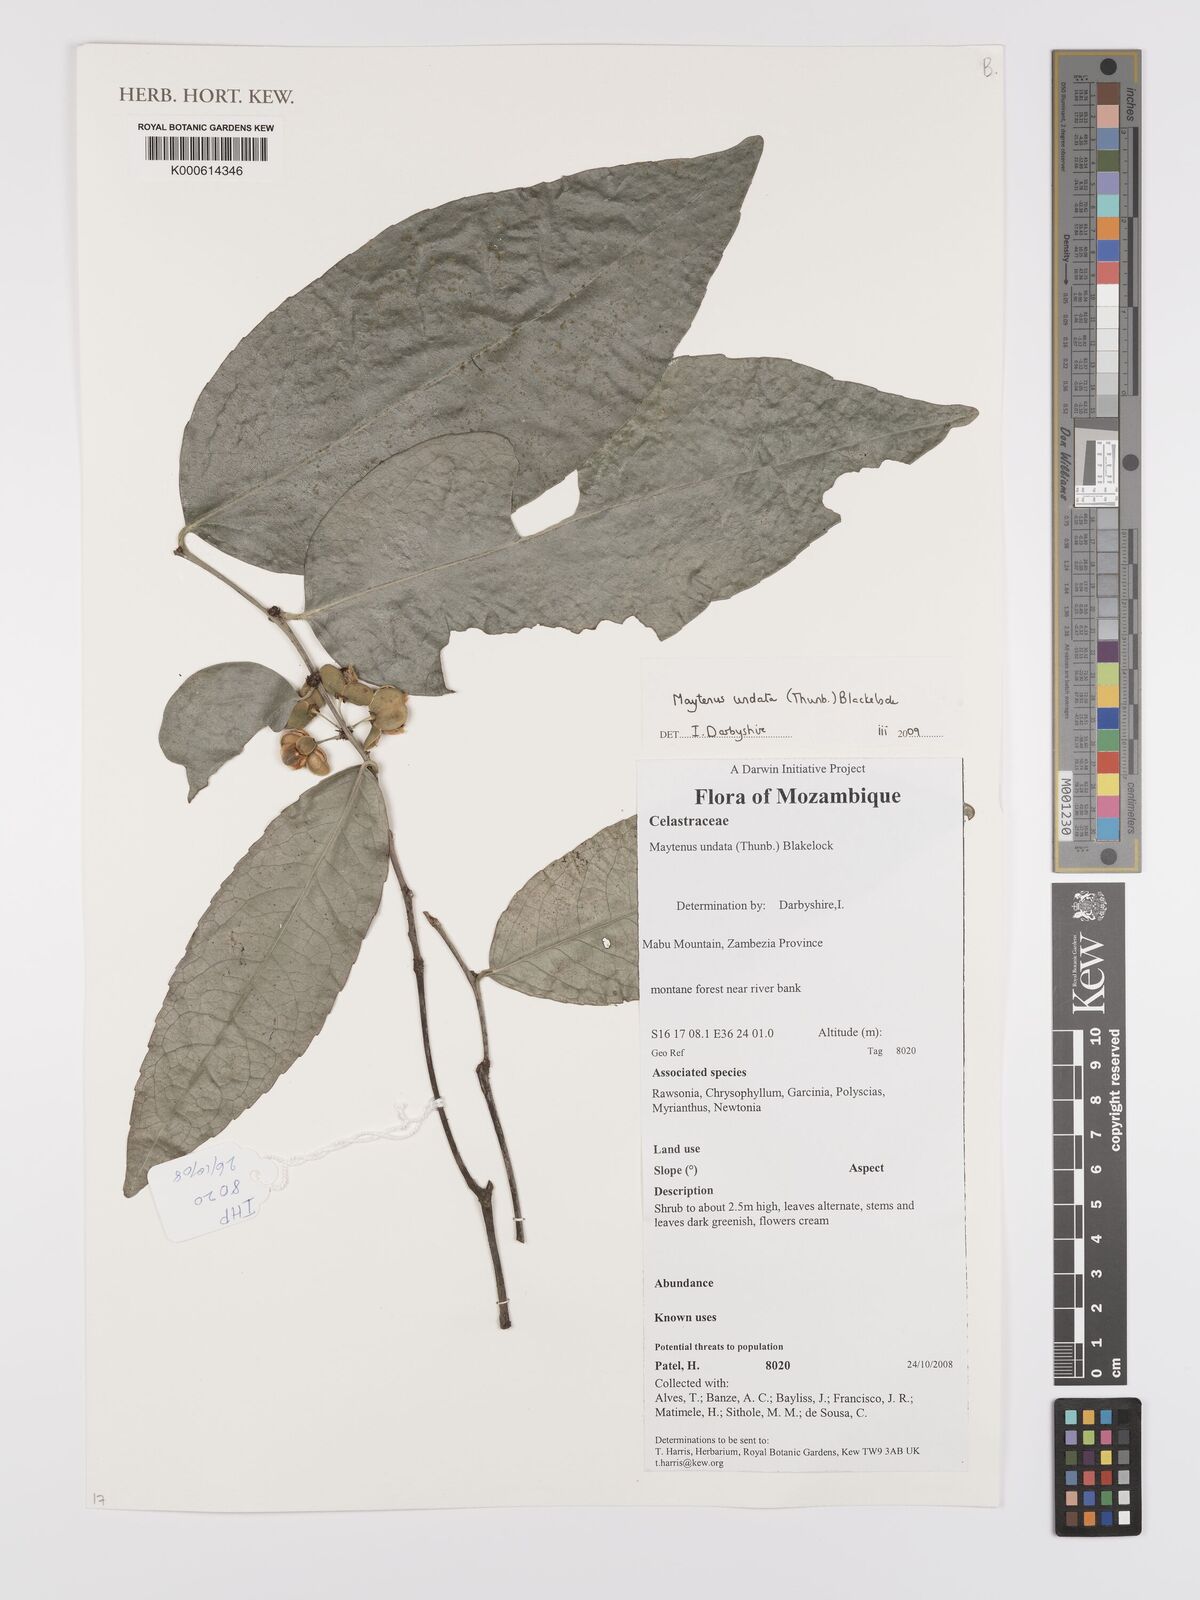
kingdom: Plantae
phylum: Tracheophyta
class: Magnoliopsida
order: Celastrales
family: Celastraceae
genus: Gymnosporia
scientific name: Gymnosporia undata
